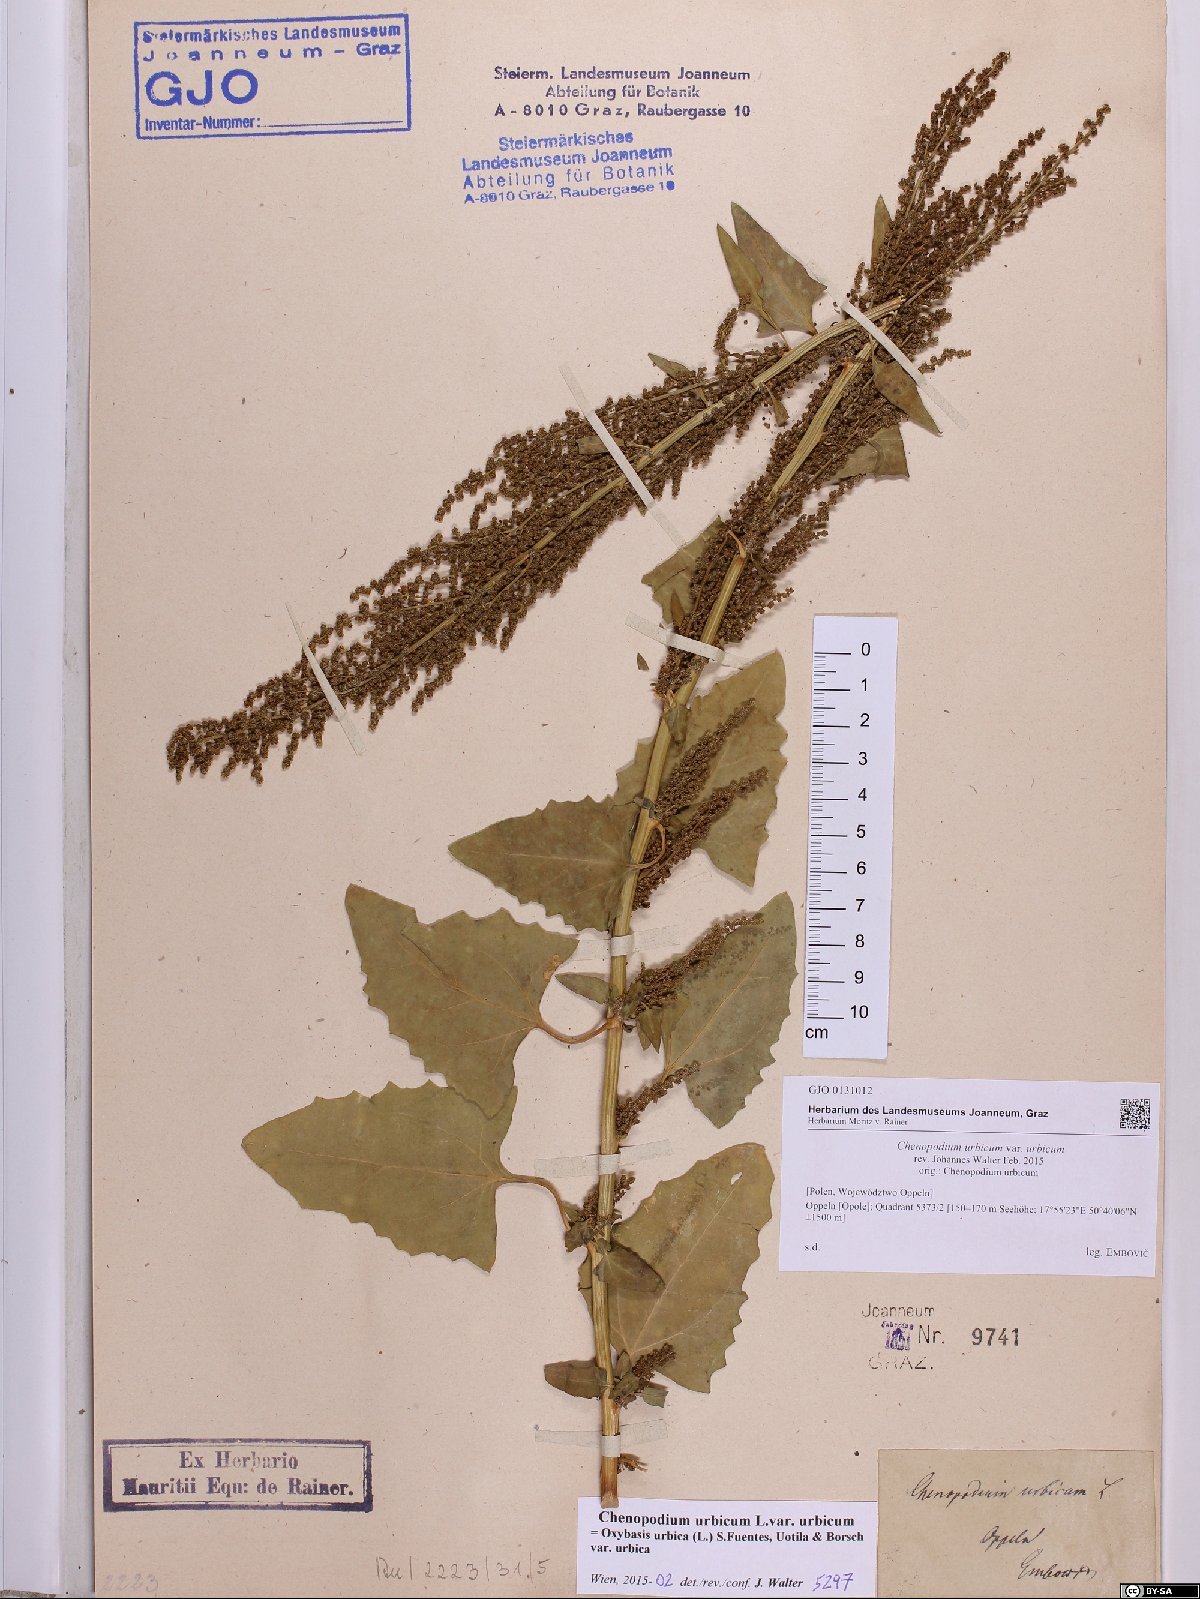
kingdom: Plantae
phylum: Tracheophyta
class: Magnoliopsida
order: Caryophyllales
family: Amaranthaceae
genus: Oxybasis
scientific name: Oxybasis urbica
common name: City goosefoot
